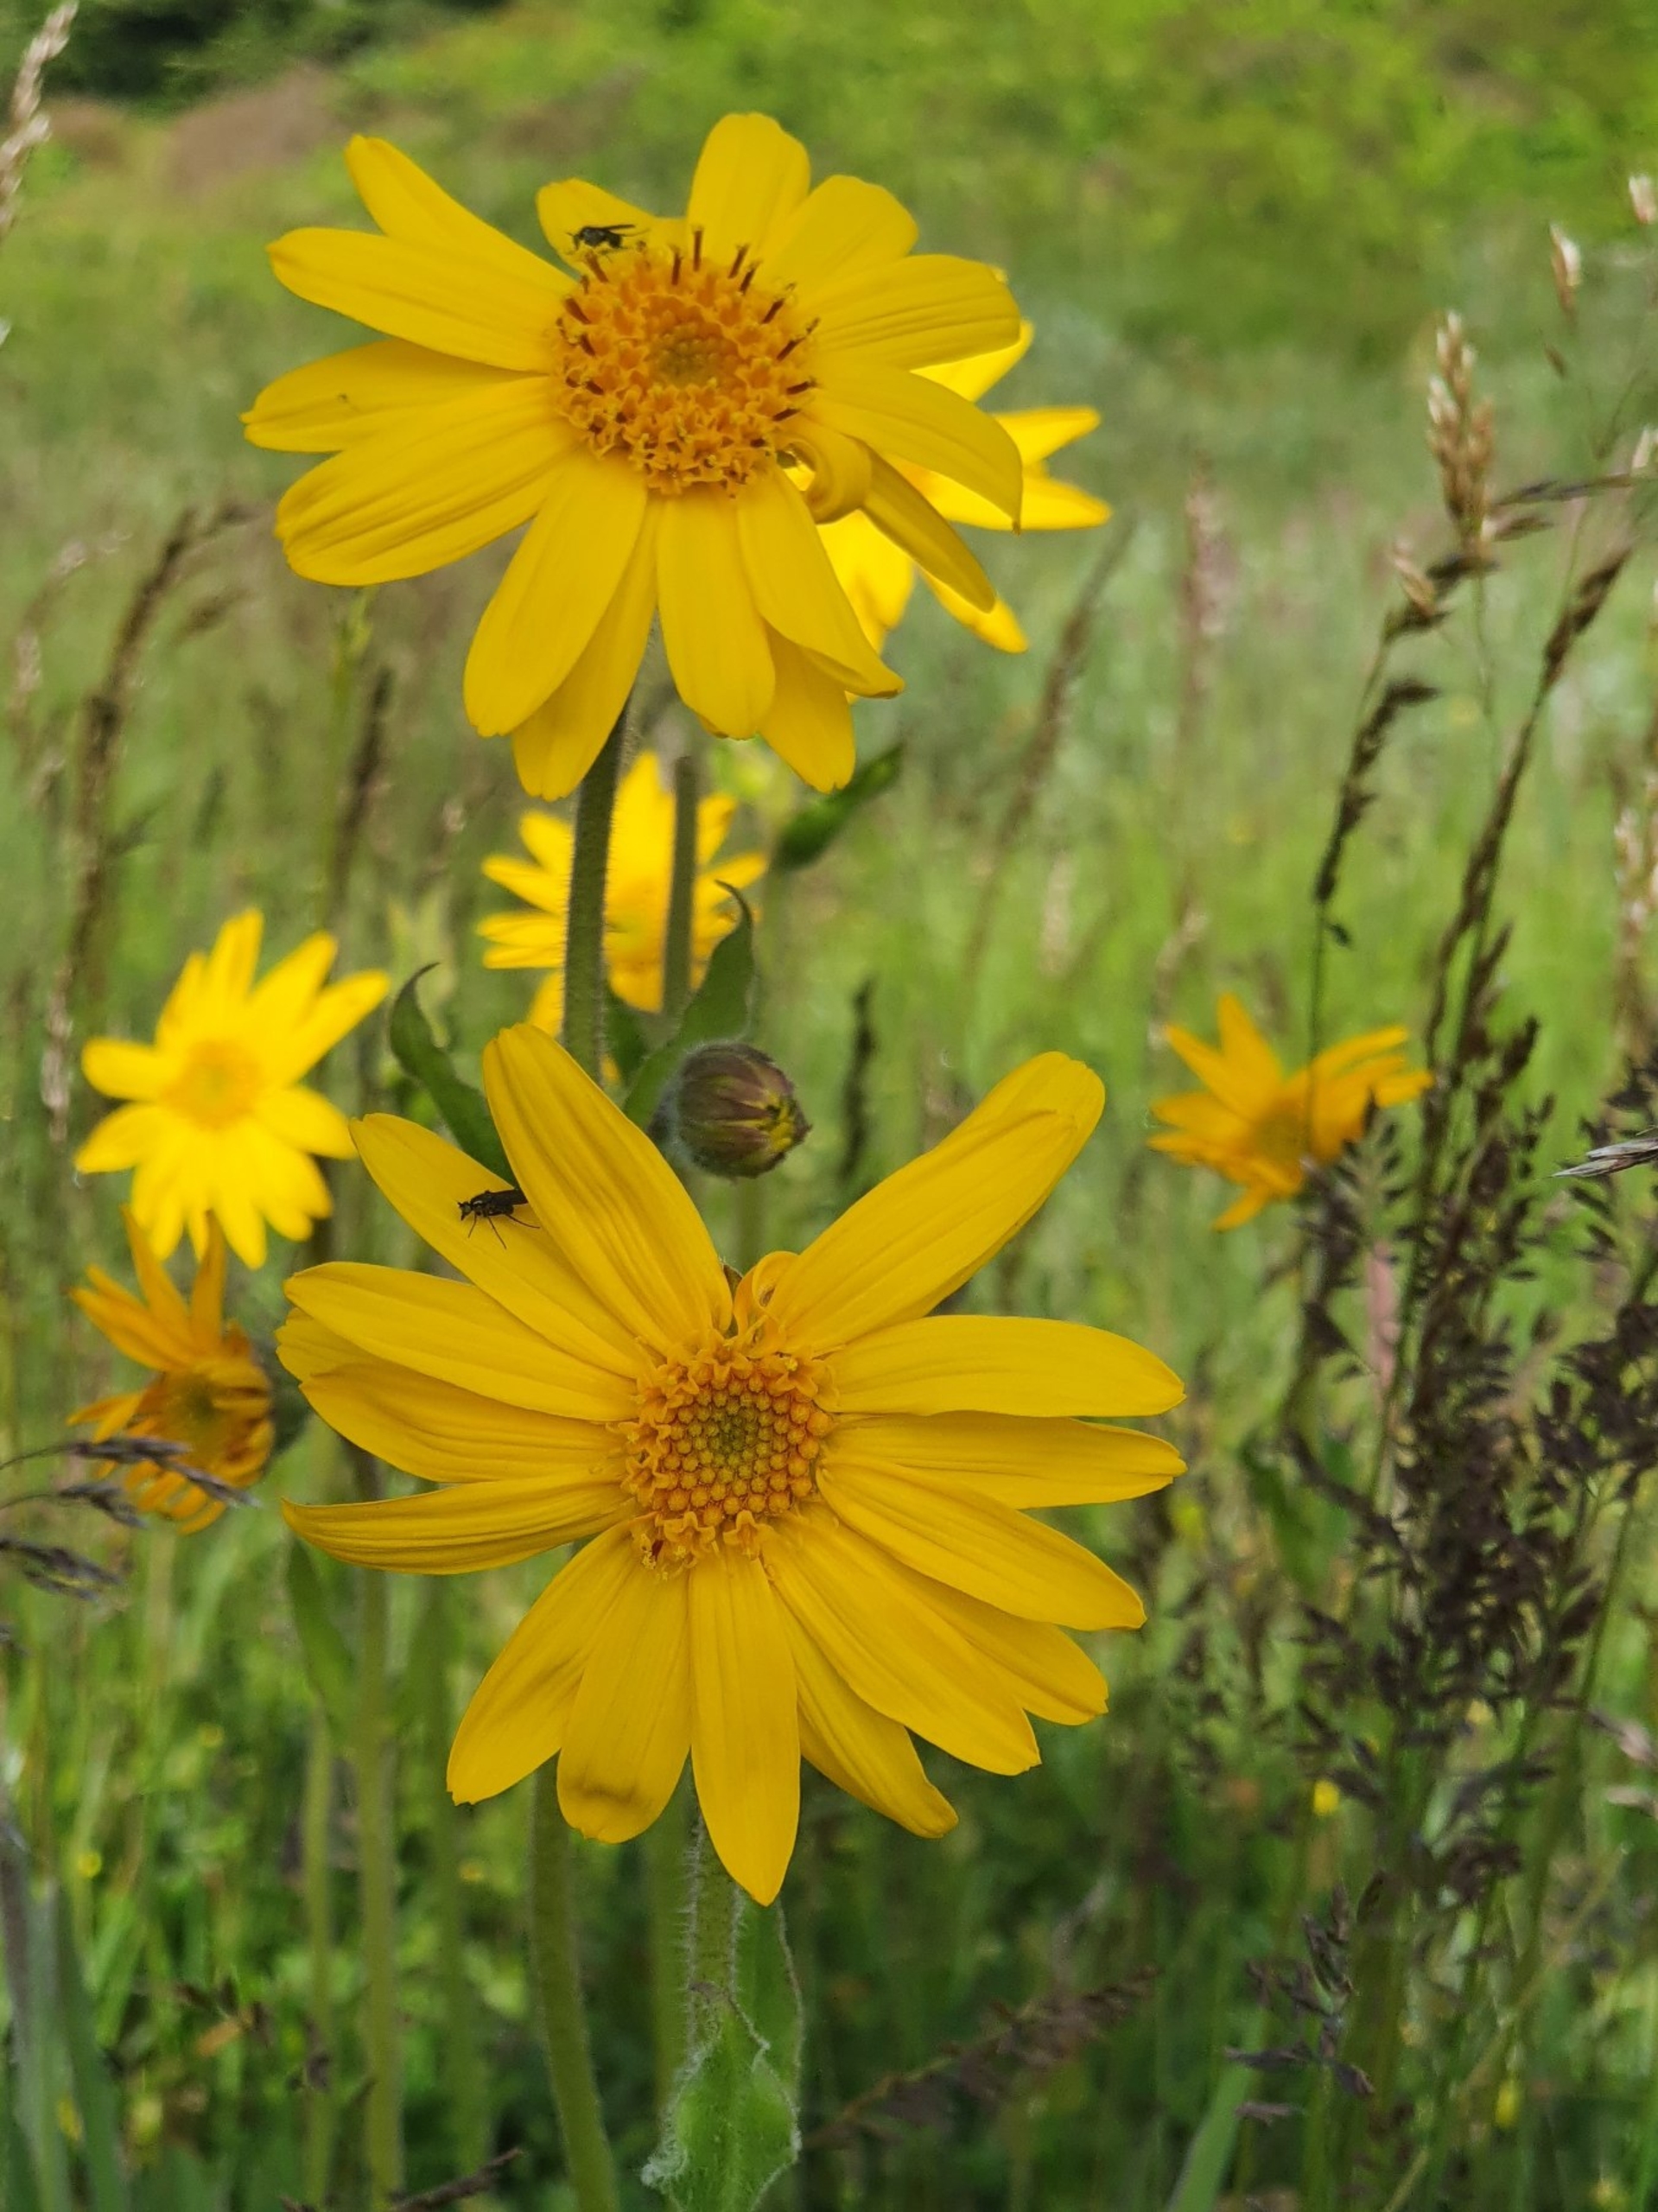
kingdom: Plantae
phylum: Tracheophyta
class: Magnoliopsida
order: Asterales
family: Asteraceae
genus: Arnica
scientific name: Arnica montana
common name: Guldblomme
